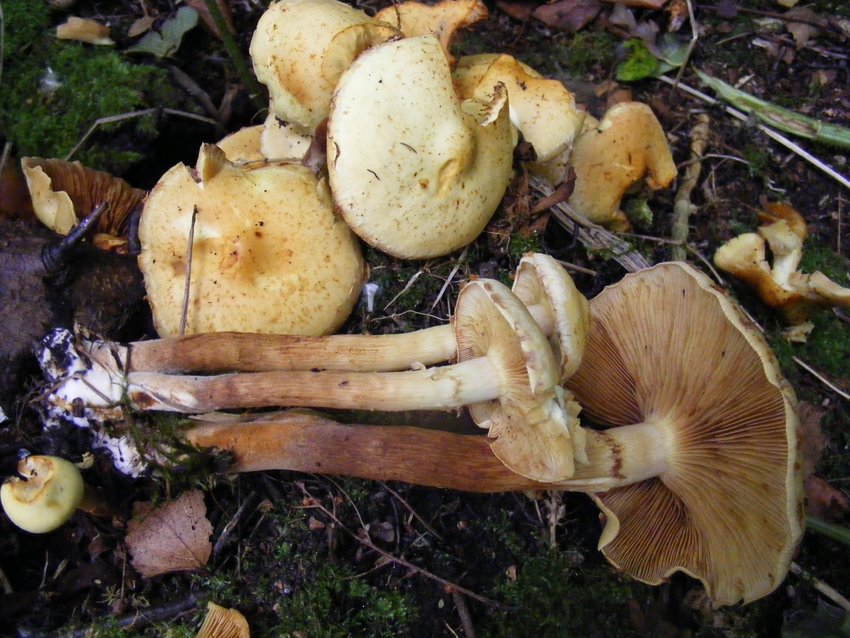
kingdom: Fungi
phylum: Basidiomycota
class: Agaricomycetes
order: Agaricales
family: Strophariaceae
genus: Pholiota
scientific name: Pholiota gummosa
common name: grøngul skælhat
